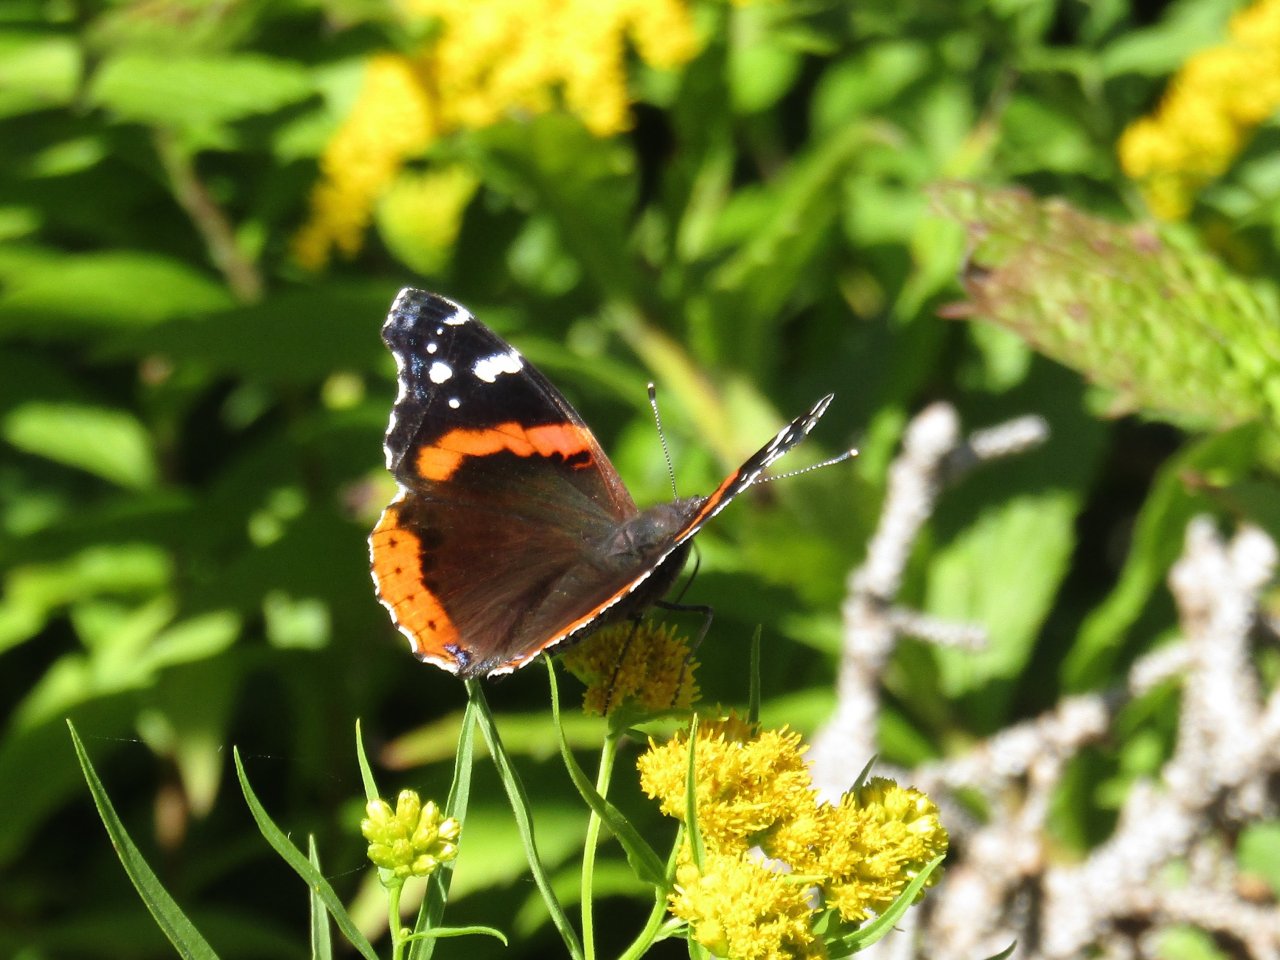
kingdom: Animalia
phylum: Arthropoda
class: Insecta
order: Lepidoptera
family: Nymphalidae
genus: Vanessa
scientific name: Vanessa atalanta
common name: Red Admiral
